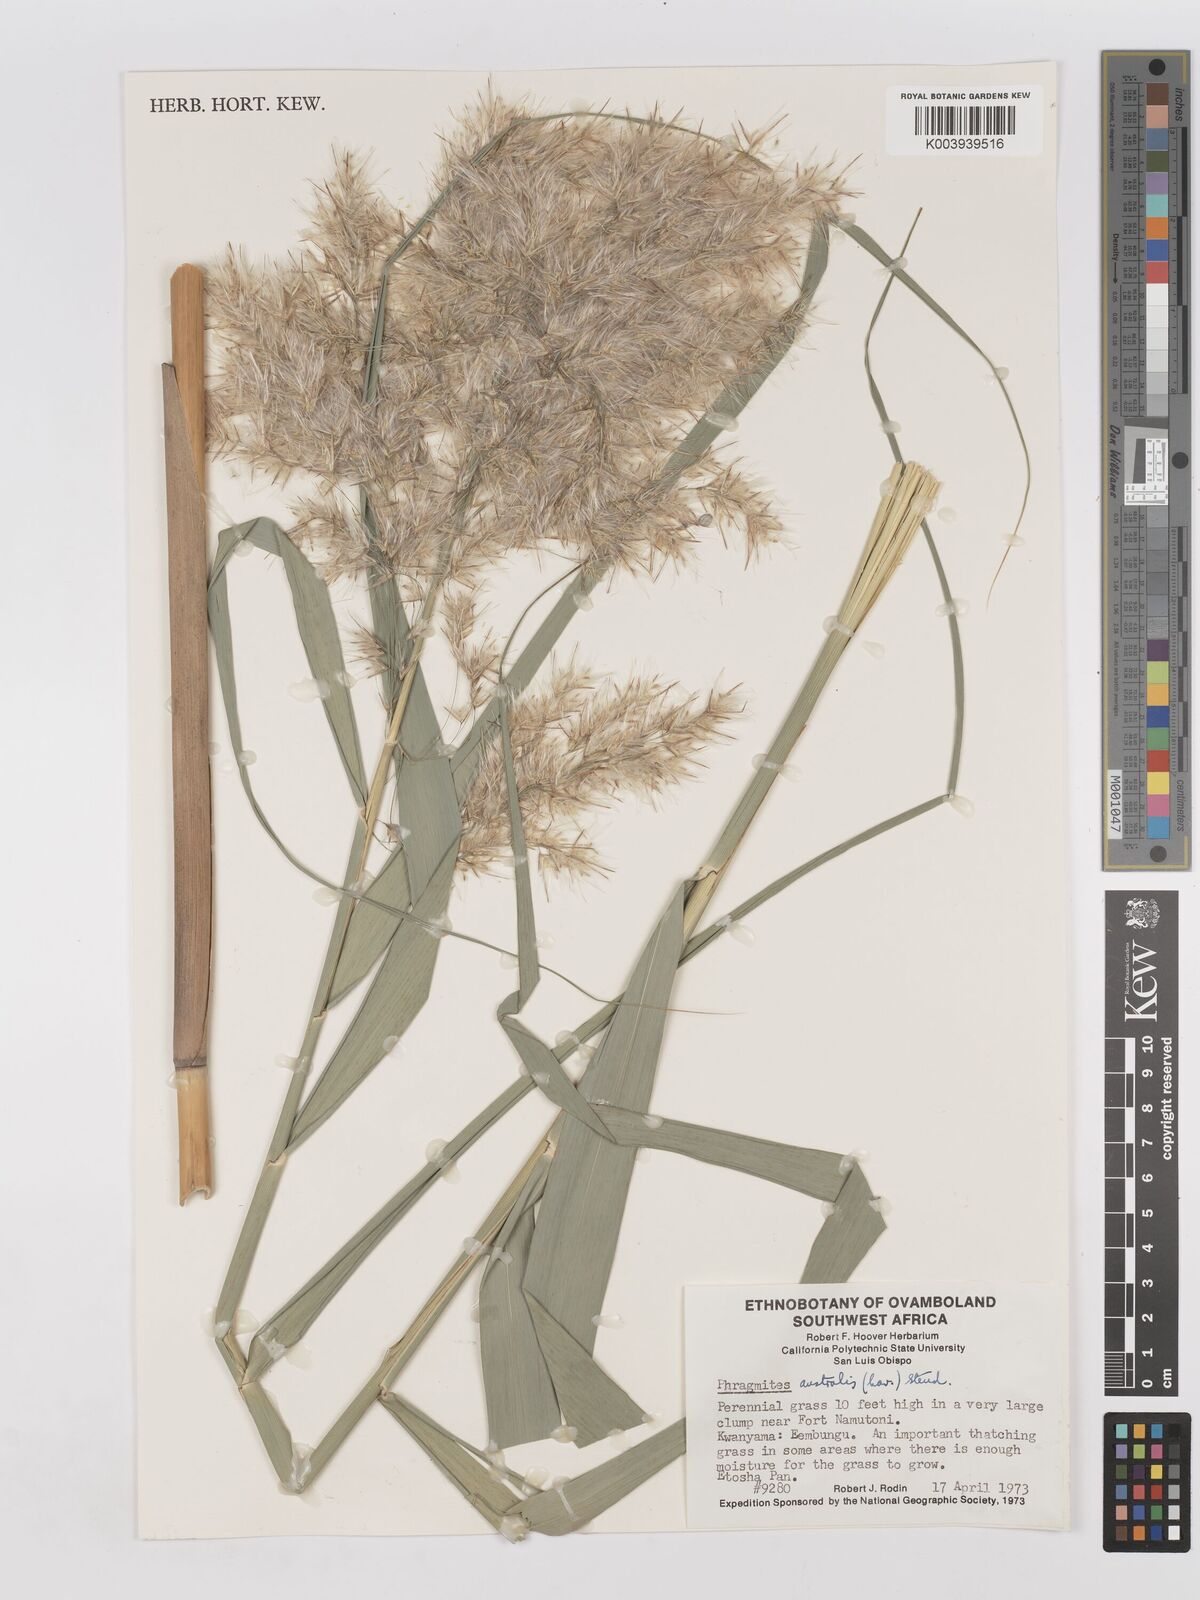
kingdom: Plantae
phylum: Tracheophyta
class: Liliopsida
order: Poales
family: Poaceae
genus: Phragmites
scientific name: Phragmites australis
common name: Common reed
